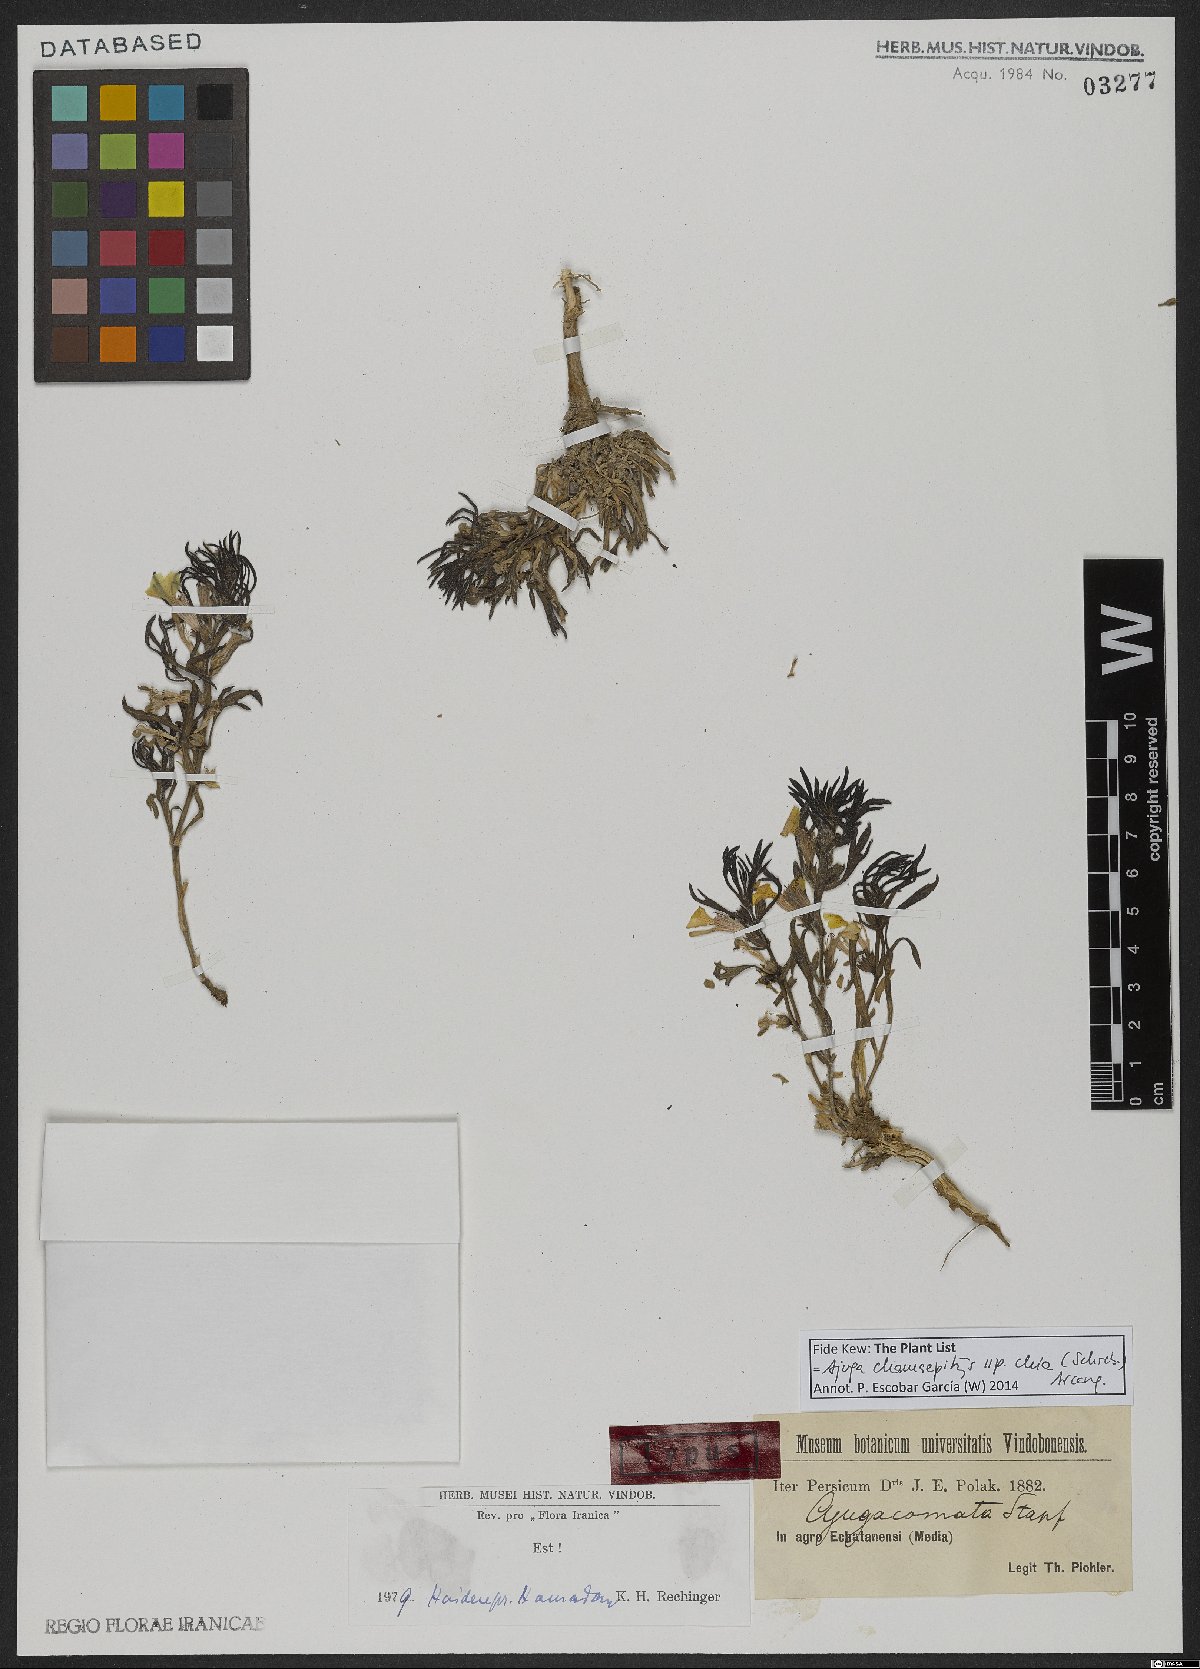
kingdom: Plantae
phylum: Tracheophyta
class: Magnoliopsida
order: Lamiales
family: Lamiaceae
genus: Ajuga
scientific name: Ajuga chamaepitys
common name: Ground-pine
